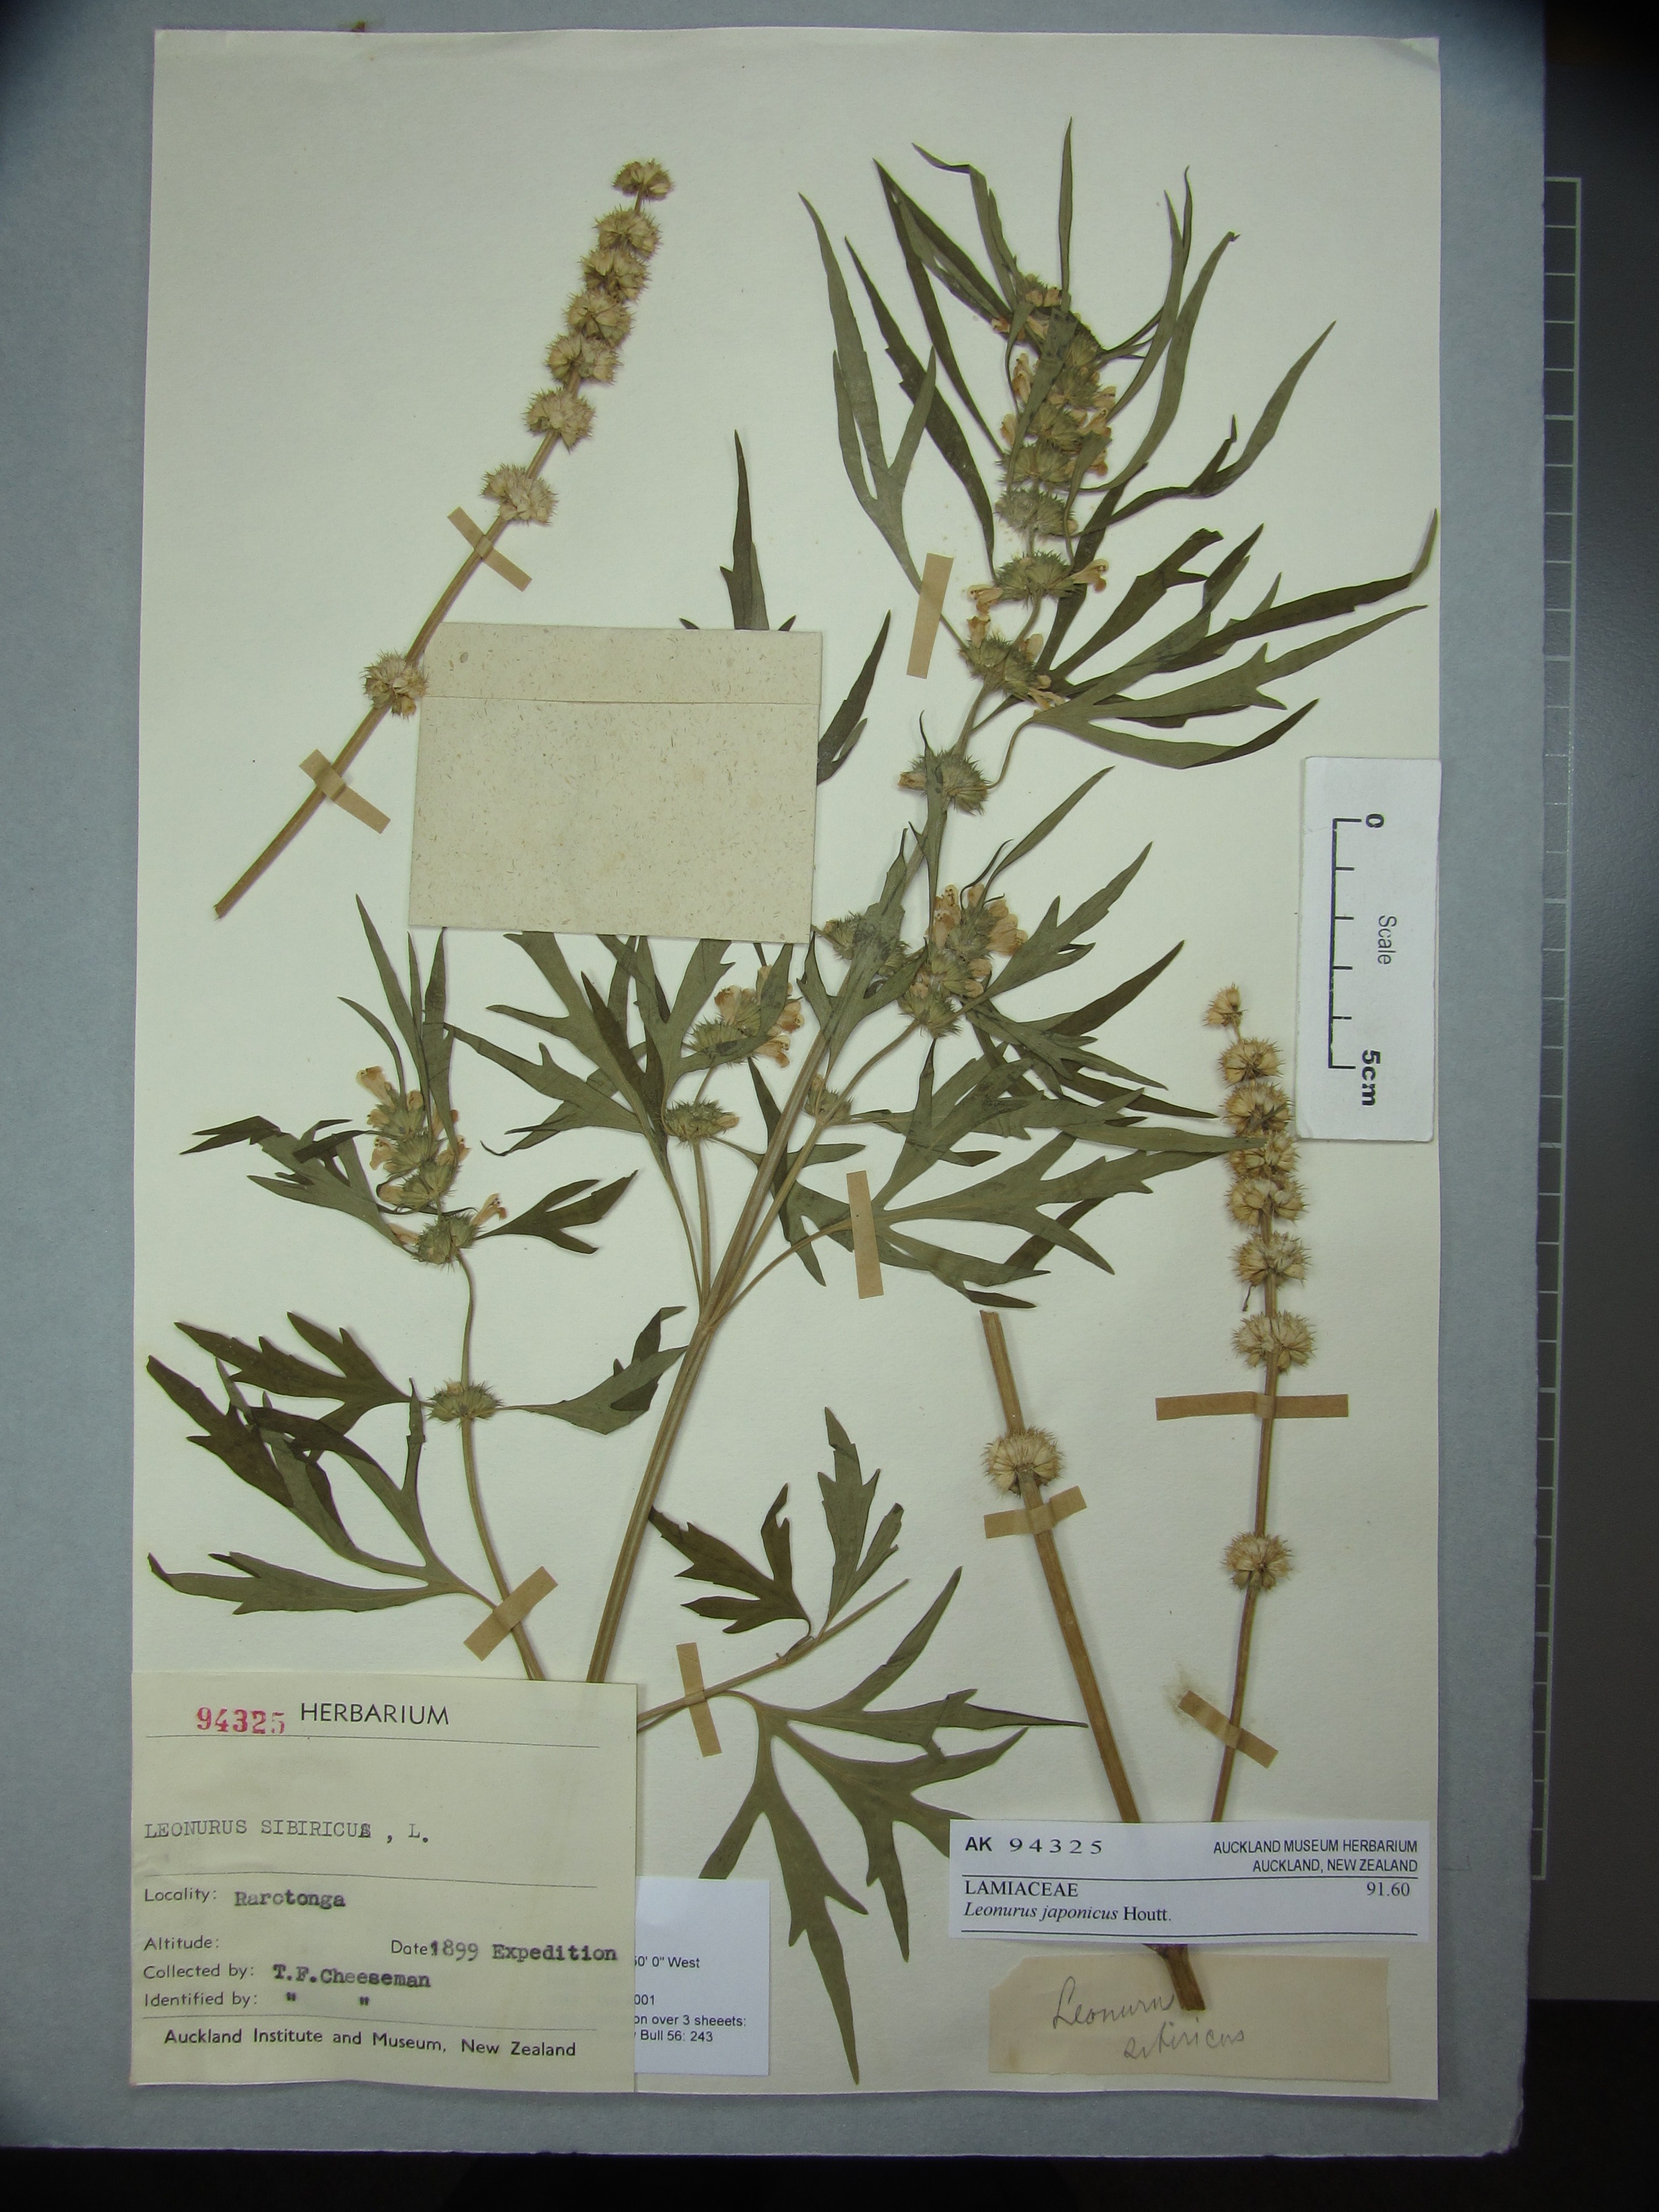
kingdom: Plantae
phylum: Tracheophyta
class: Magnoliopsida
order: Lamiales
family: Lamiaceae
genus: Leonurus
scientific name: Leonurus japonicus
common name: Honeyweed
